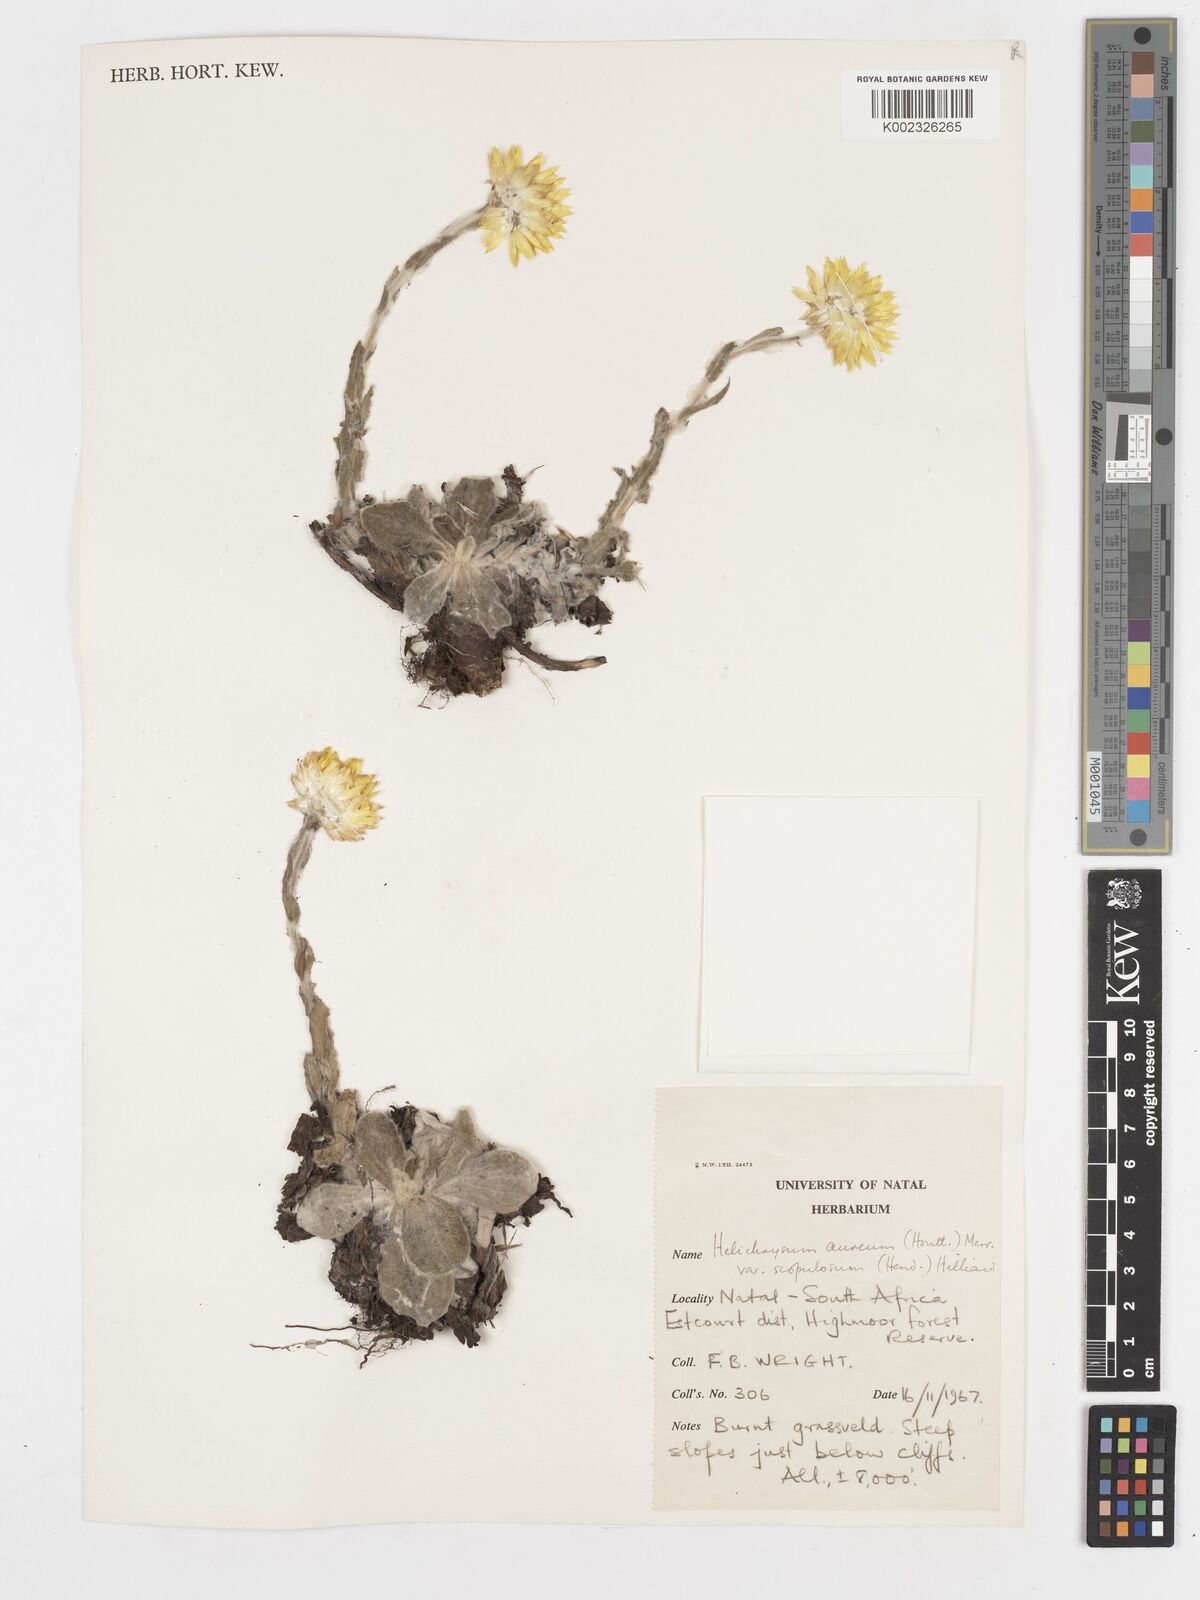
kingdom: Plantae
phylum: Tracheophyta
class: Magnoliopsida
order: Asterales
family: Asteraceae
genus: Helichrysum
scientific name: Helichrysum aureum
